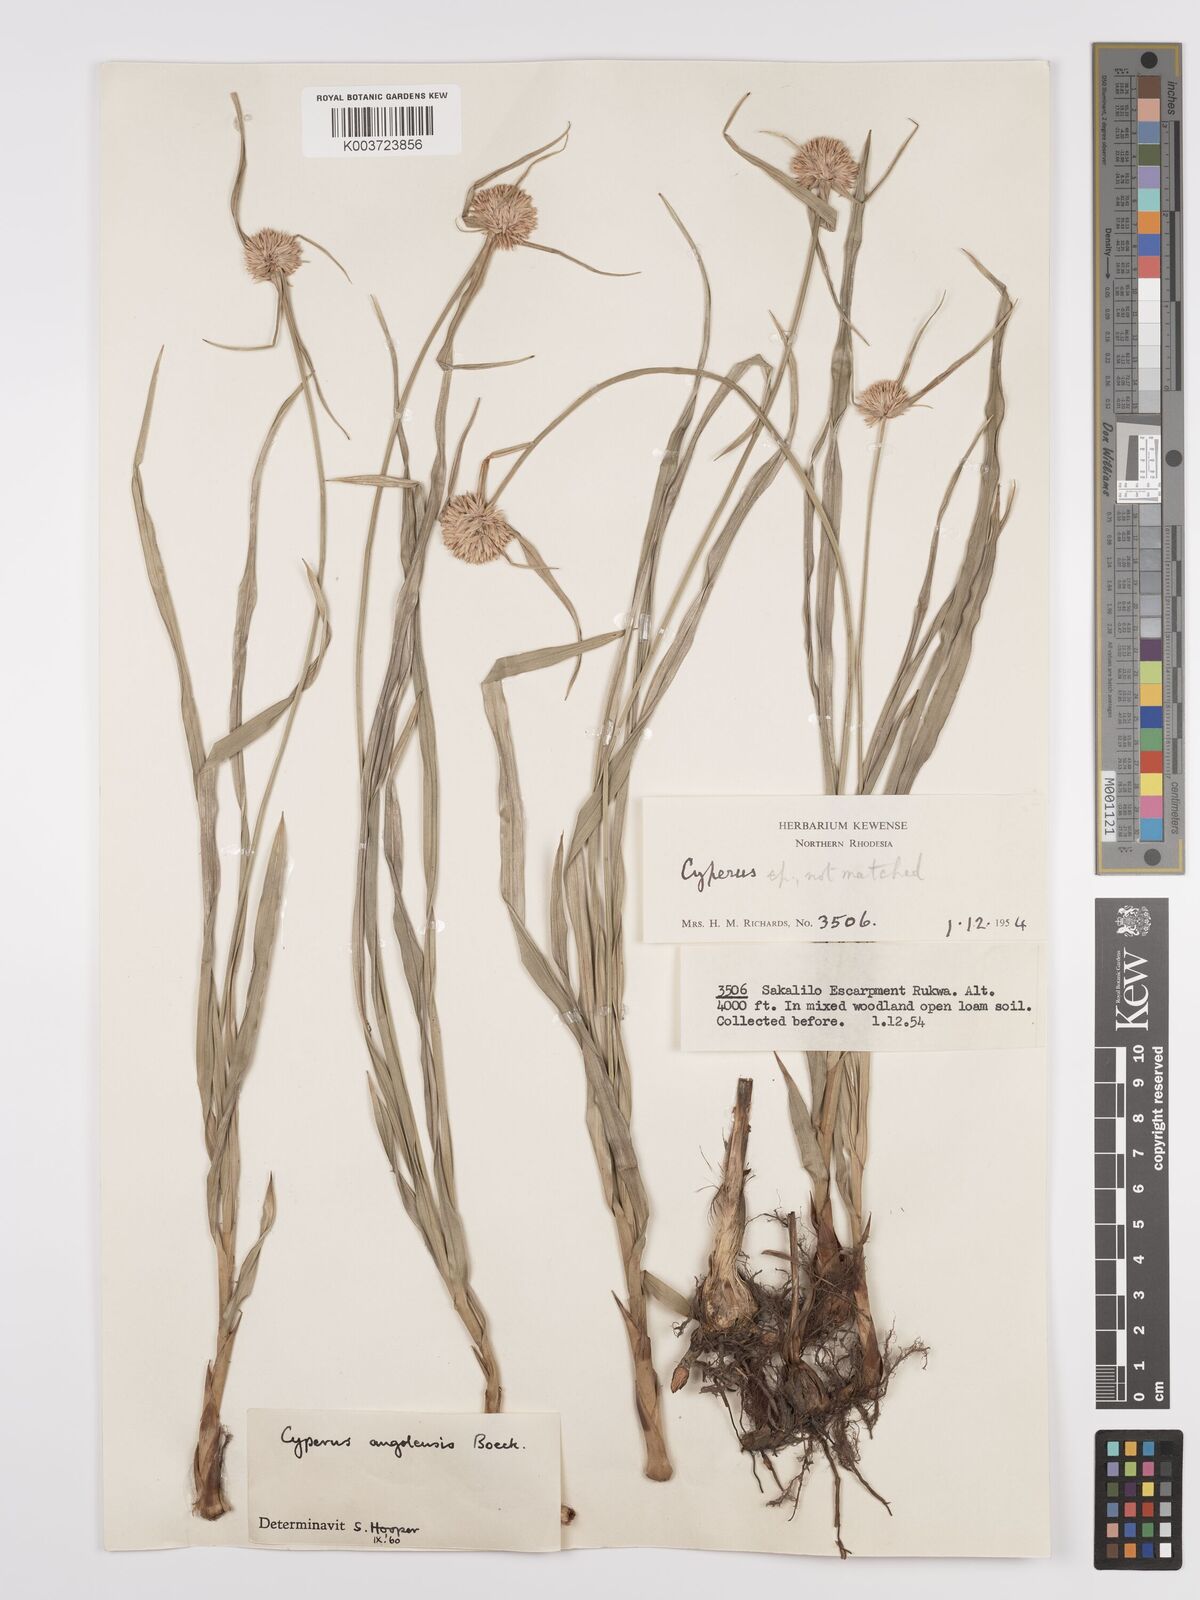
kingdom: Plantae
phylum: Tracheophyta
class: Liliopsida
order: Poales
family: Cyperaceae
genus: Cyperus
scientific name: Cyperus angolensis
